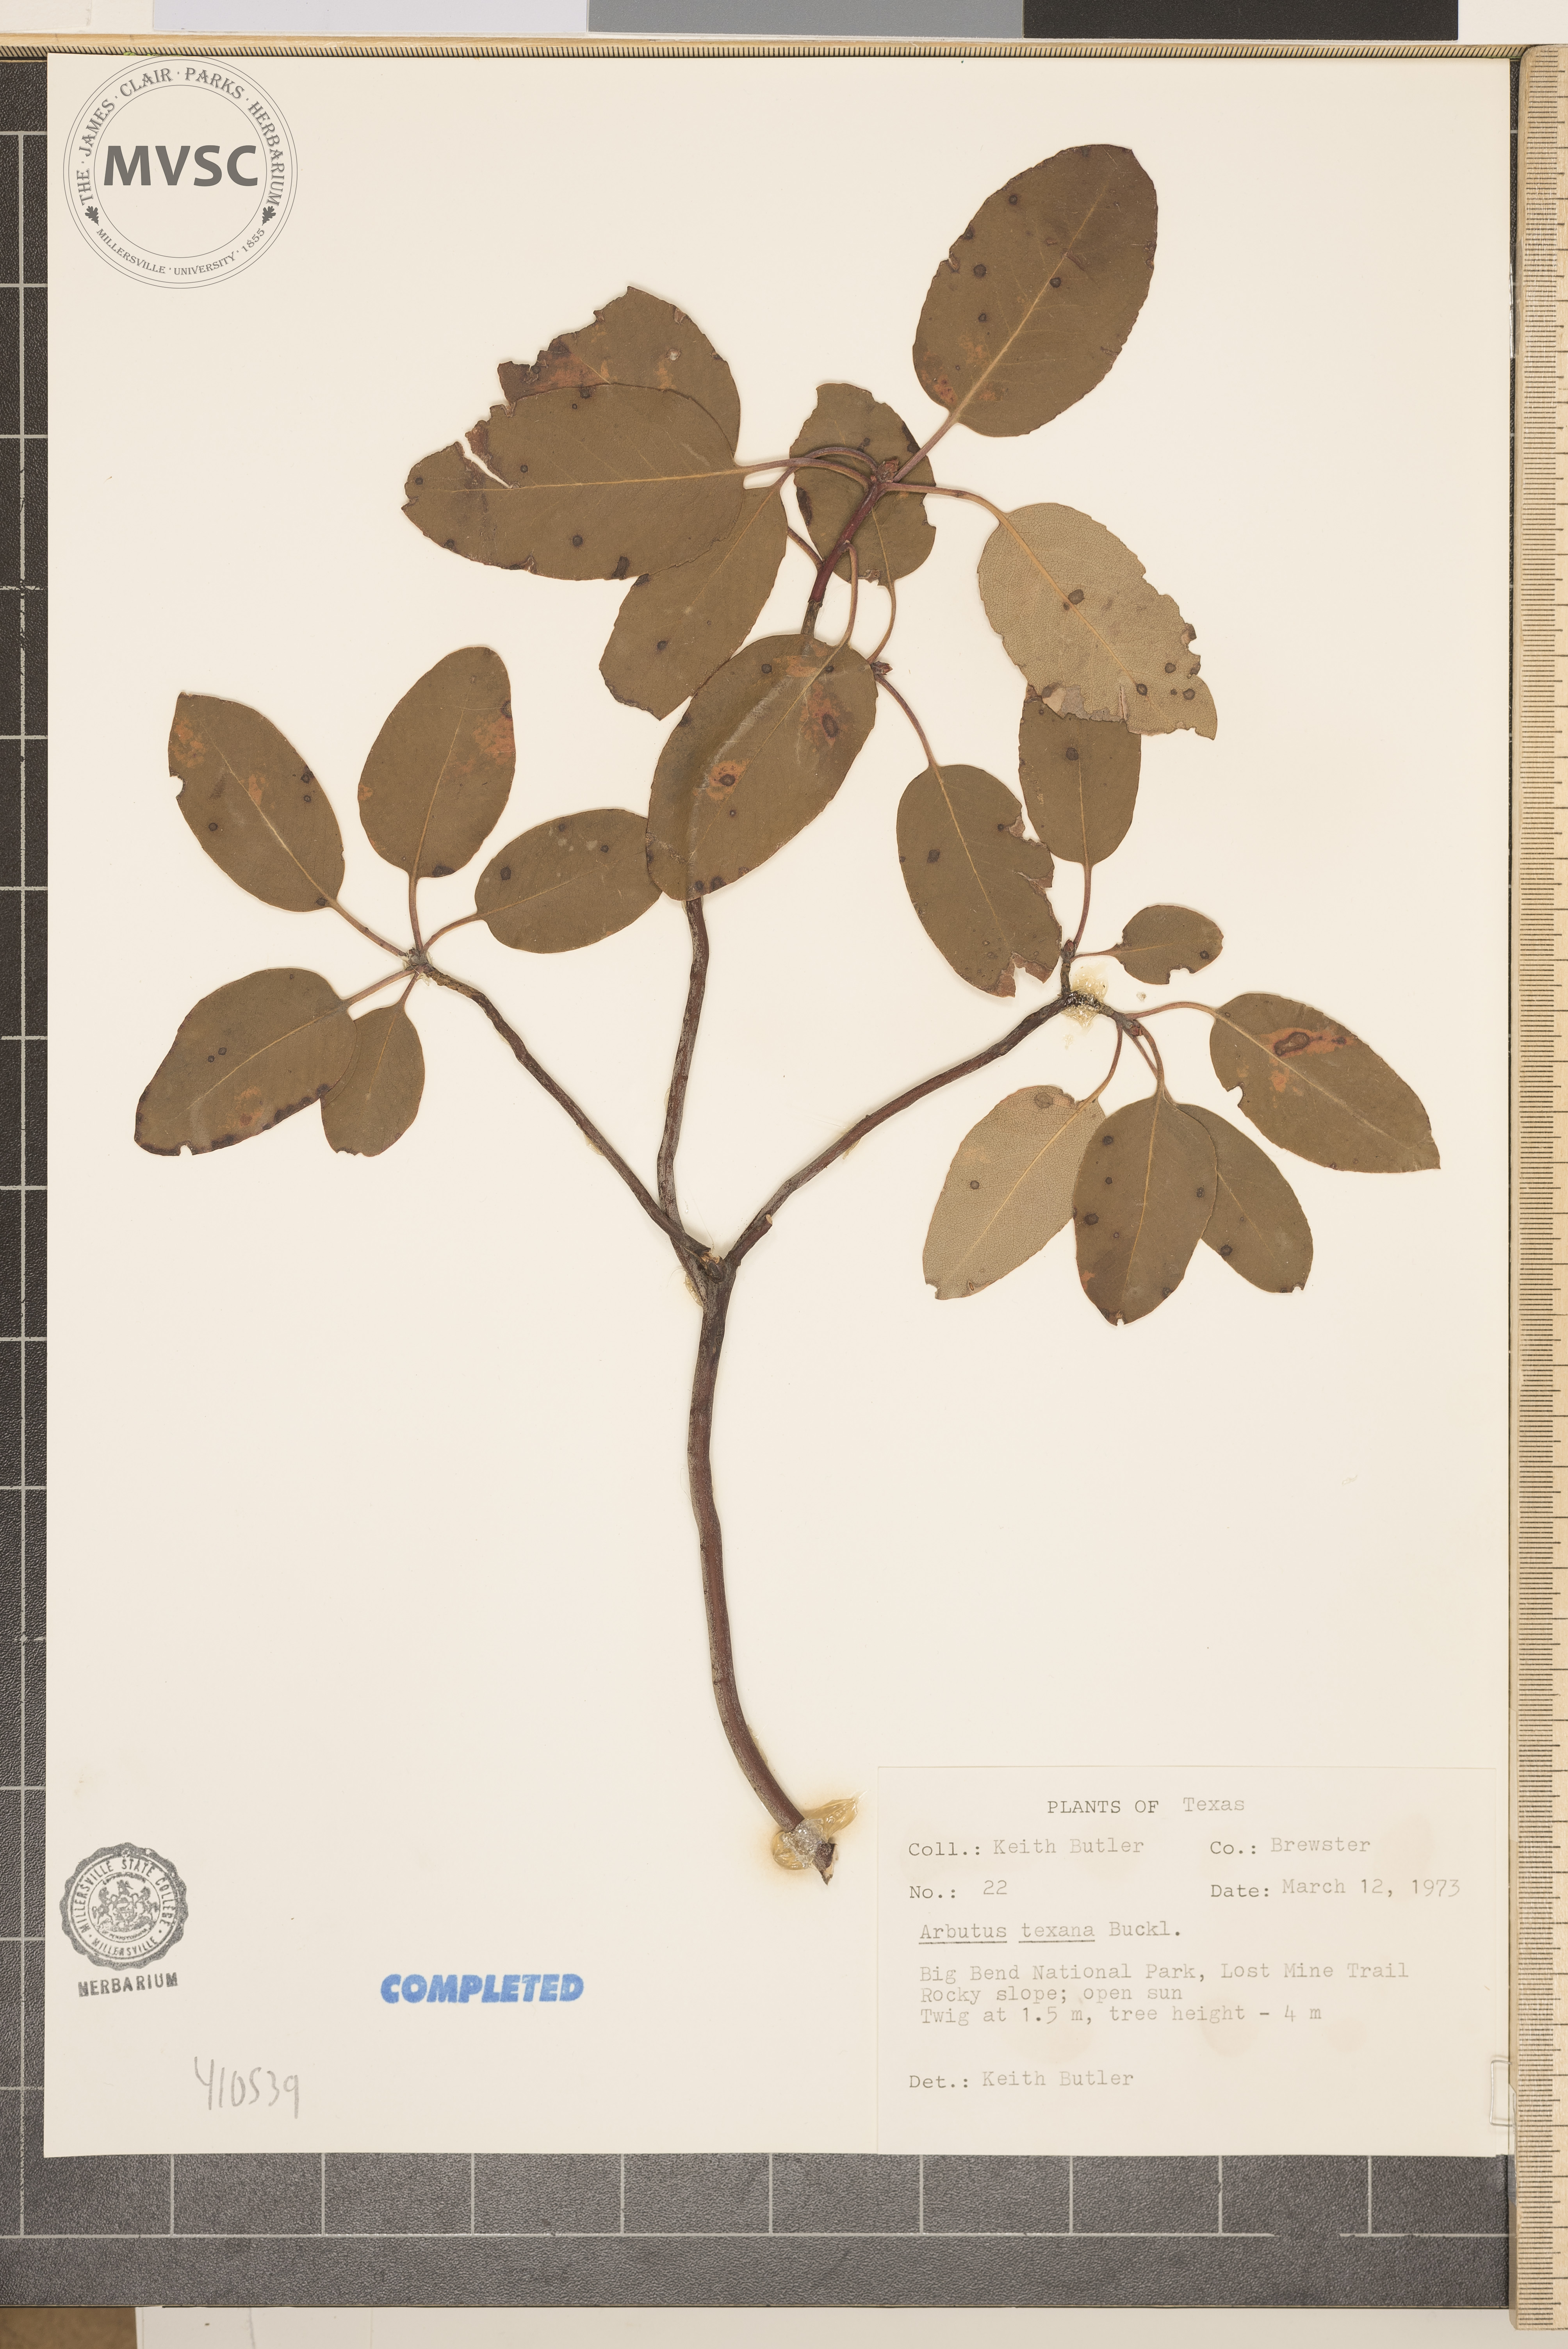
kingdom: Plantae
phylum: Tracheophyta
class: Magnoliopsida
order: Ericales
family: Ericaceae
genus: Arbutus
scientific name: Arbutus xalapensis
